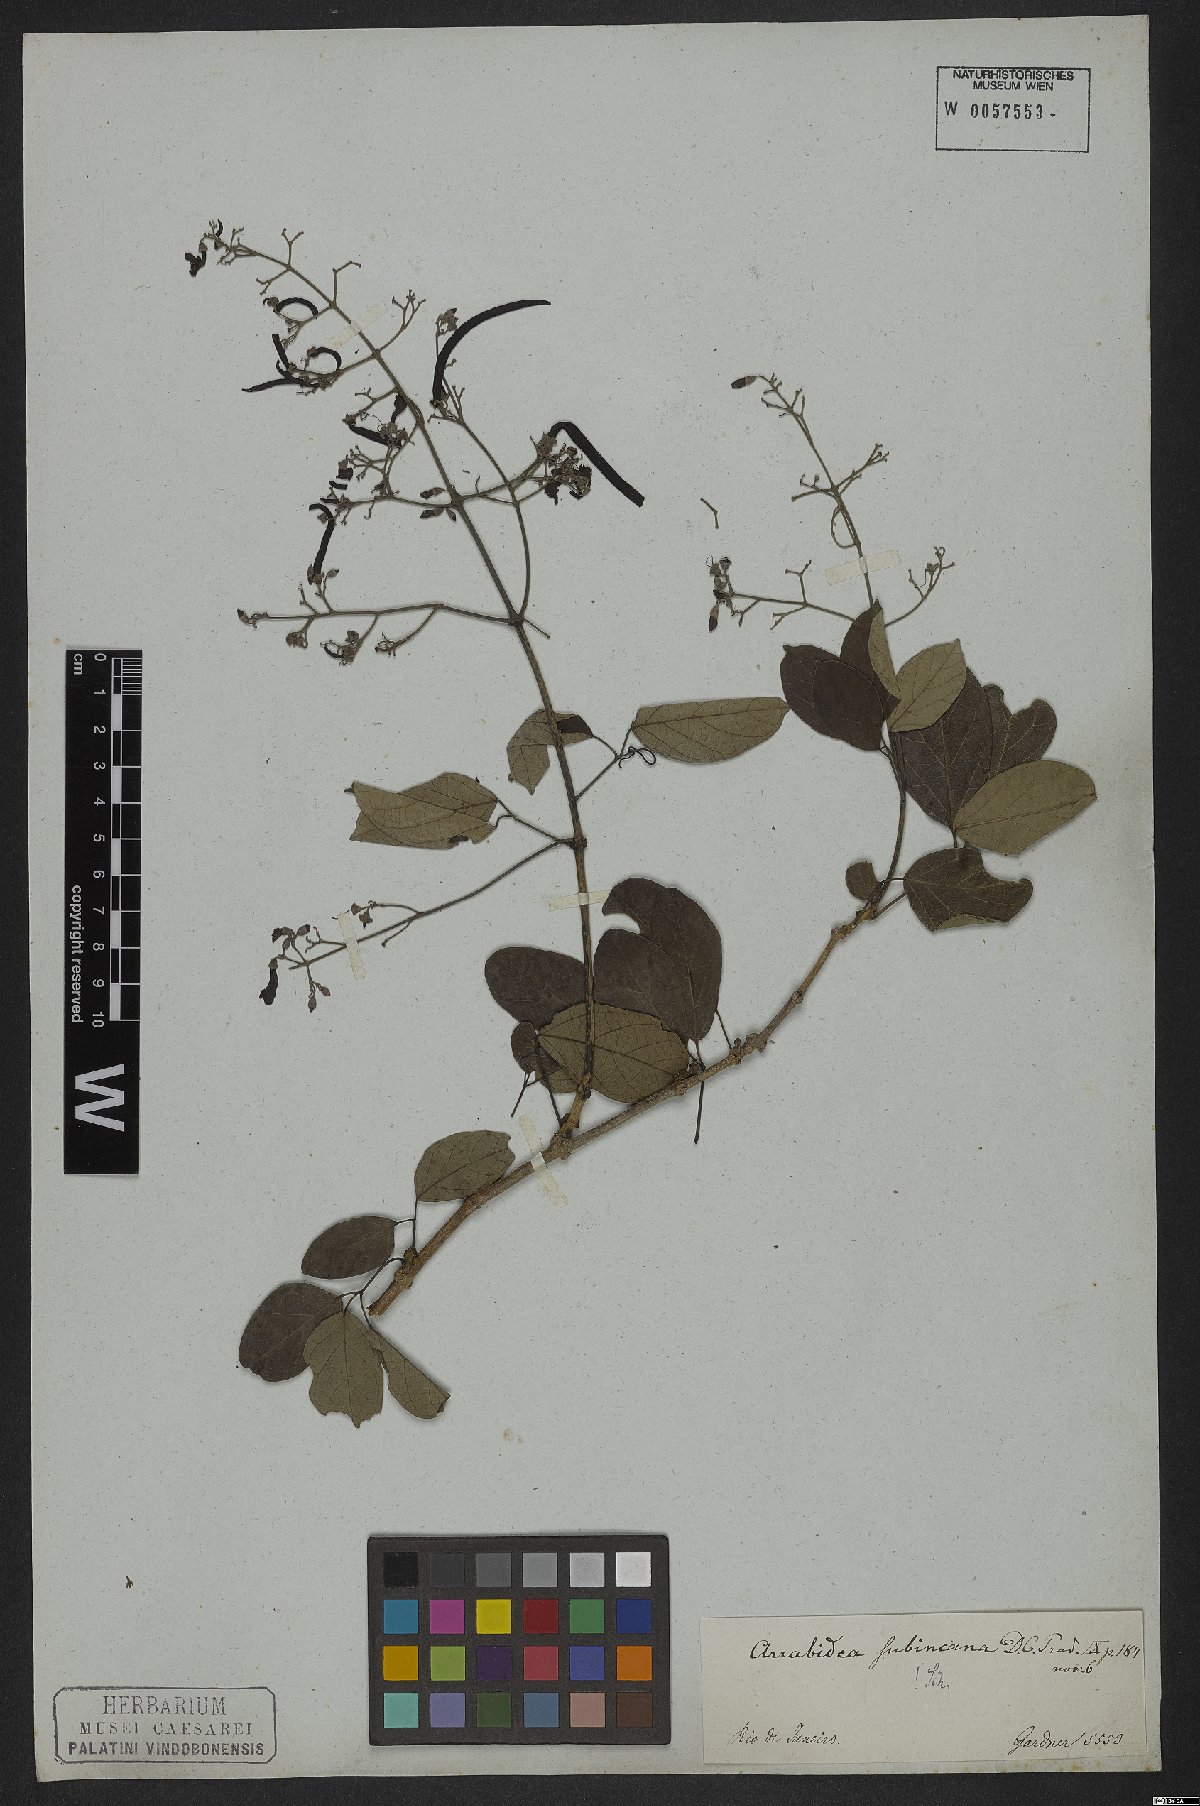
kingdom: Plantae
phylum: Tracheophyta
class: Magnoliopsida
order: Lamiales
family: Bignoniaceae
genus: Fridericia
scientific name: Fridericia subincana
